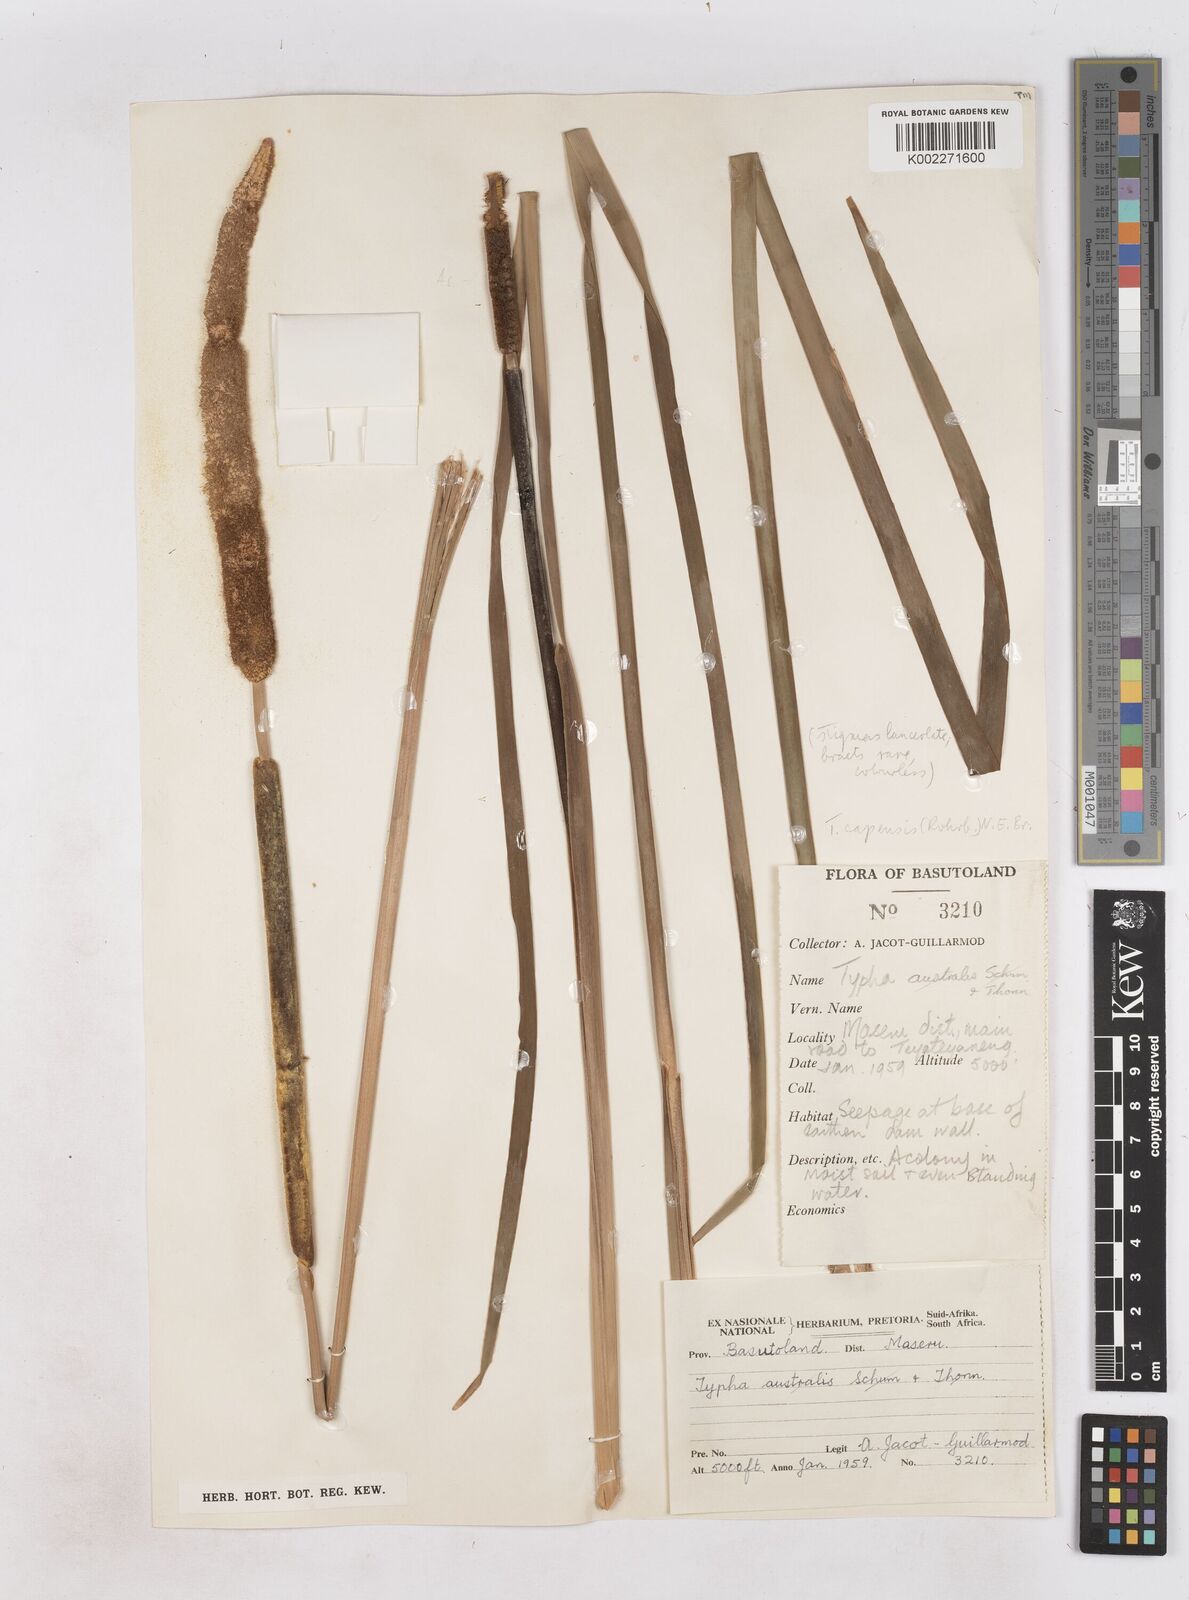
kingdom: Plantae
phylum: Tracheophyta
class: Liliopsida
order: Poales
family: Typhaceae
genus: Typha
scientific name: Typha capensis
